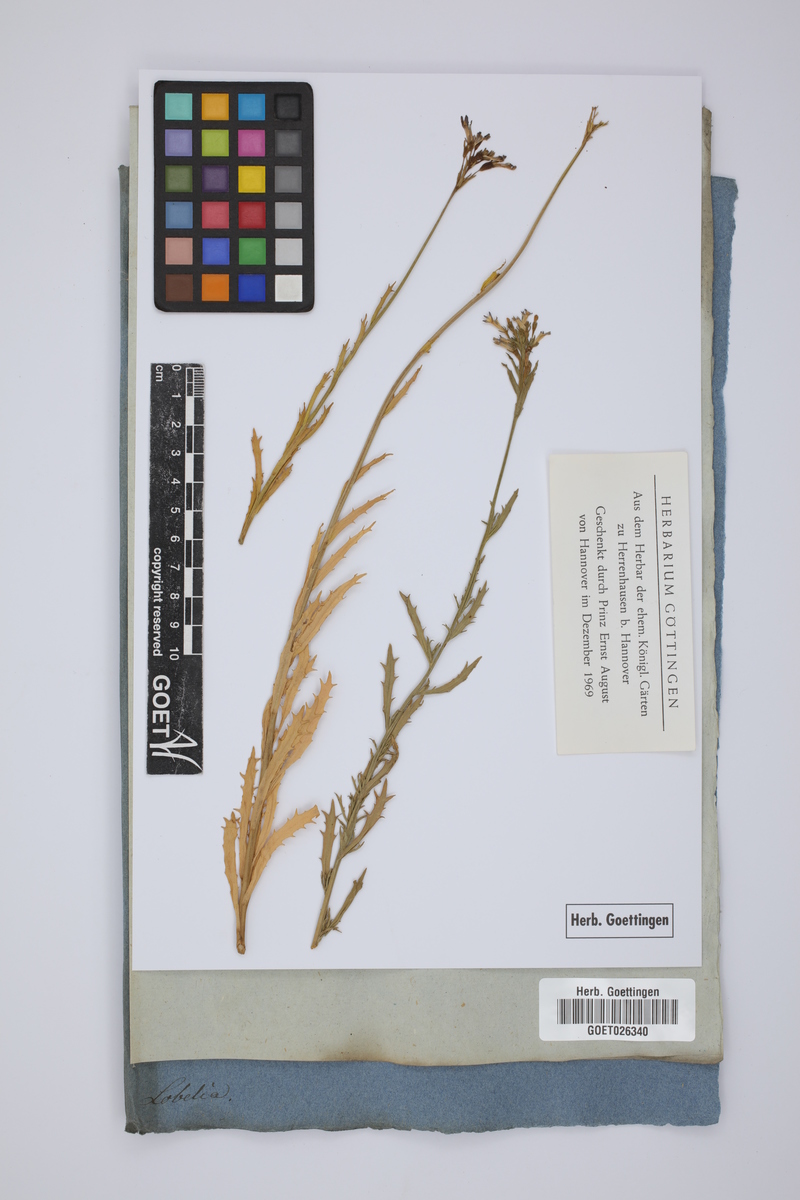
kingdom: Plantae
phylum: Tracheophyta
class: Magnoliopsida
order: Asterales
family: Campanulaceae
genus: Lobelia
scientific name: Lobelia
